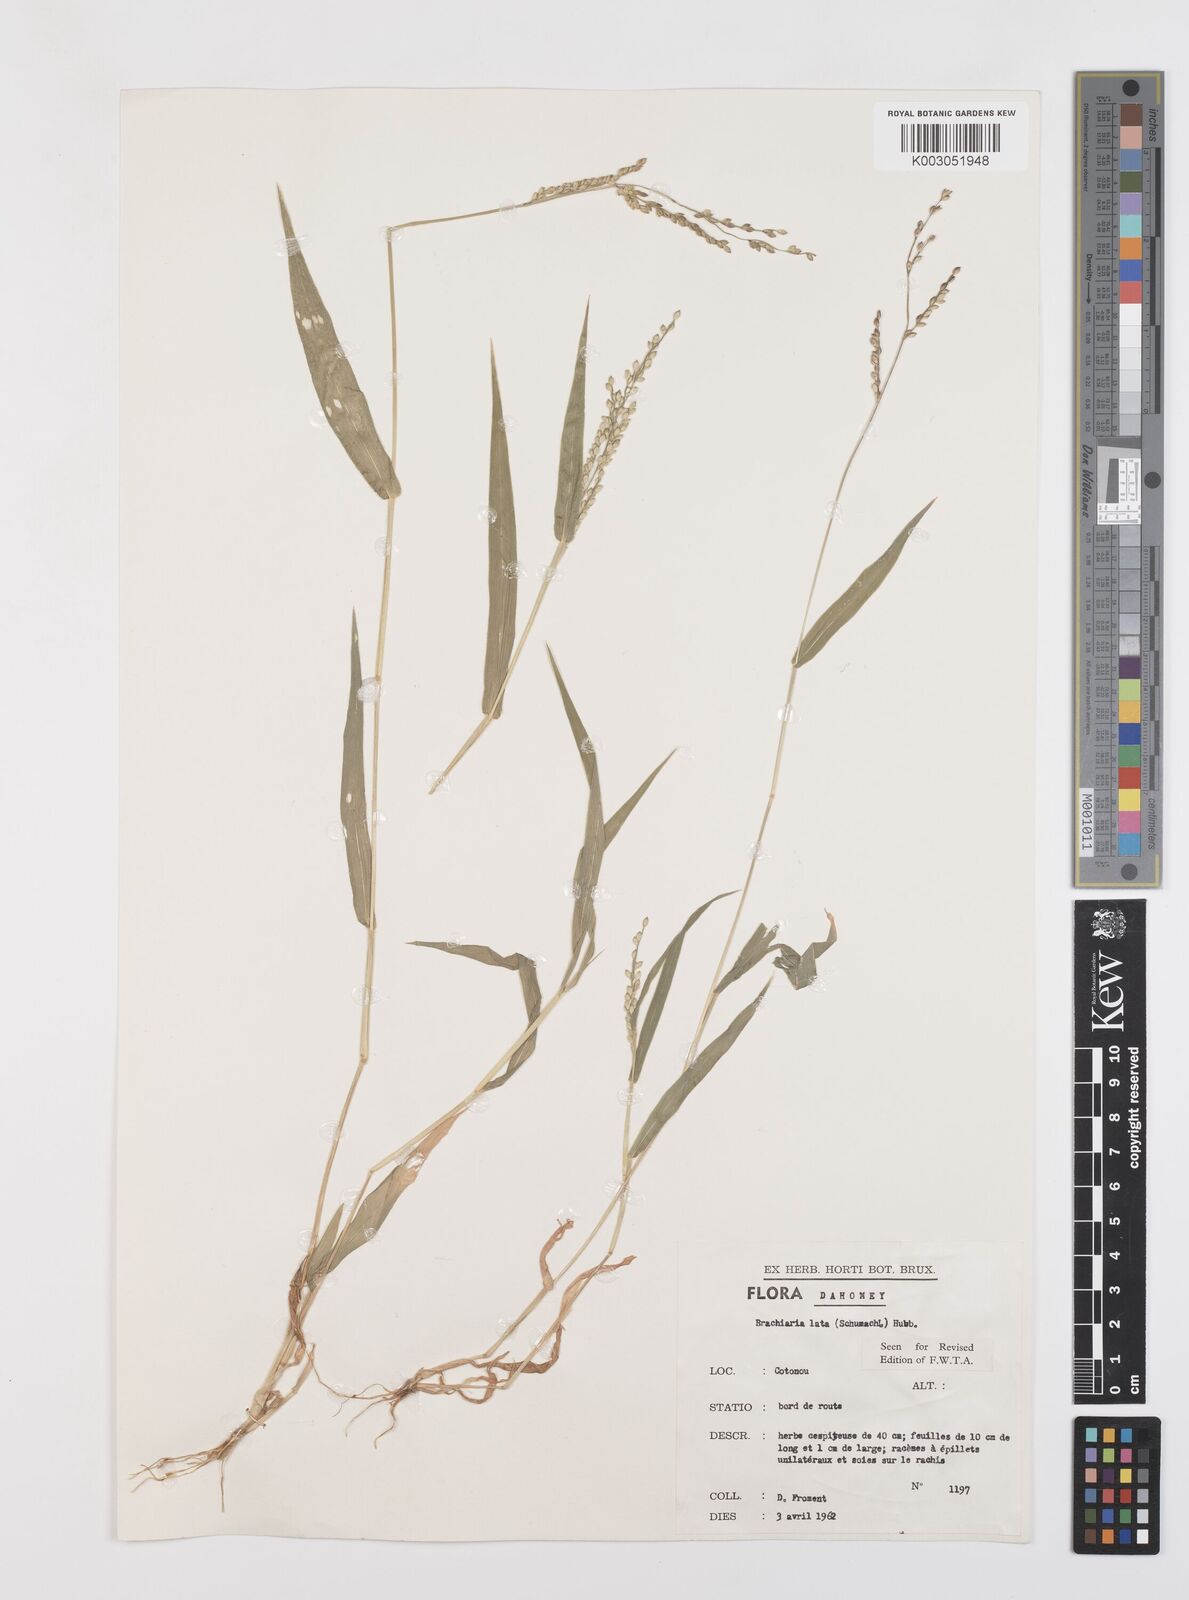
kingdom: Plantae
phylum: Tracheophyta
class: Liliopsida
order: Poales
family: Poaceae
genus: Urochloa
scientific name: Urochloa lata
